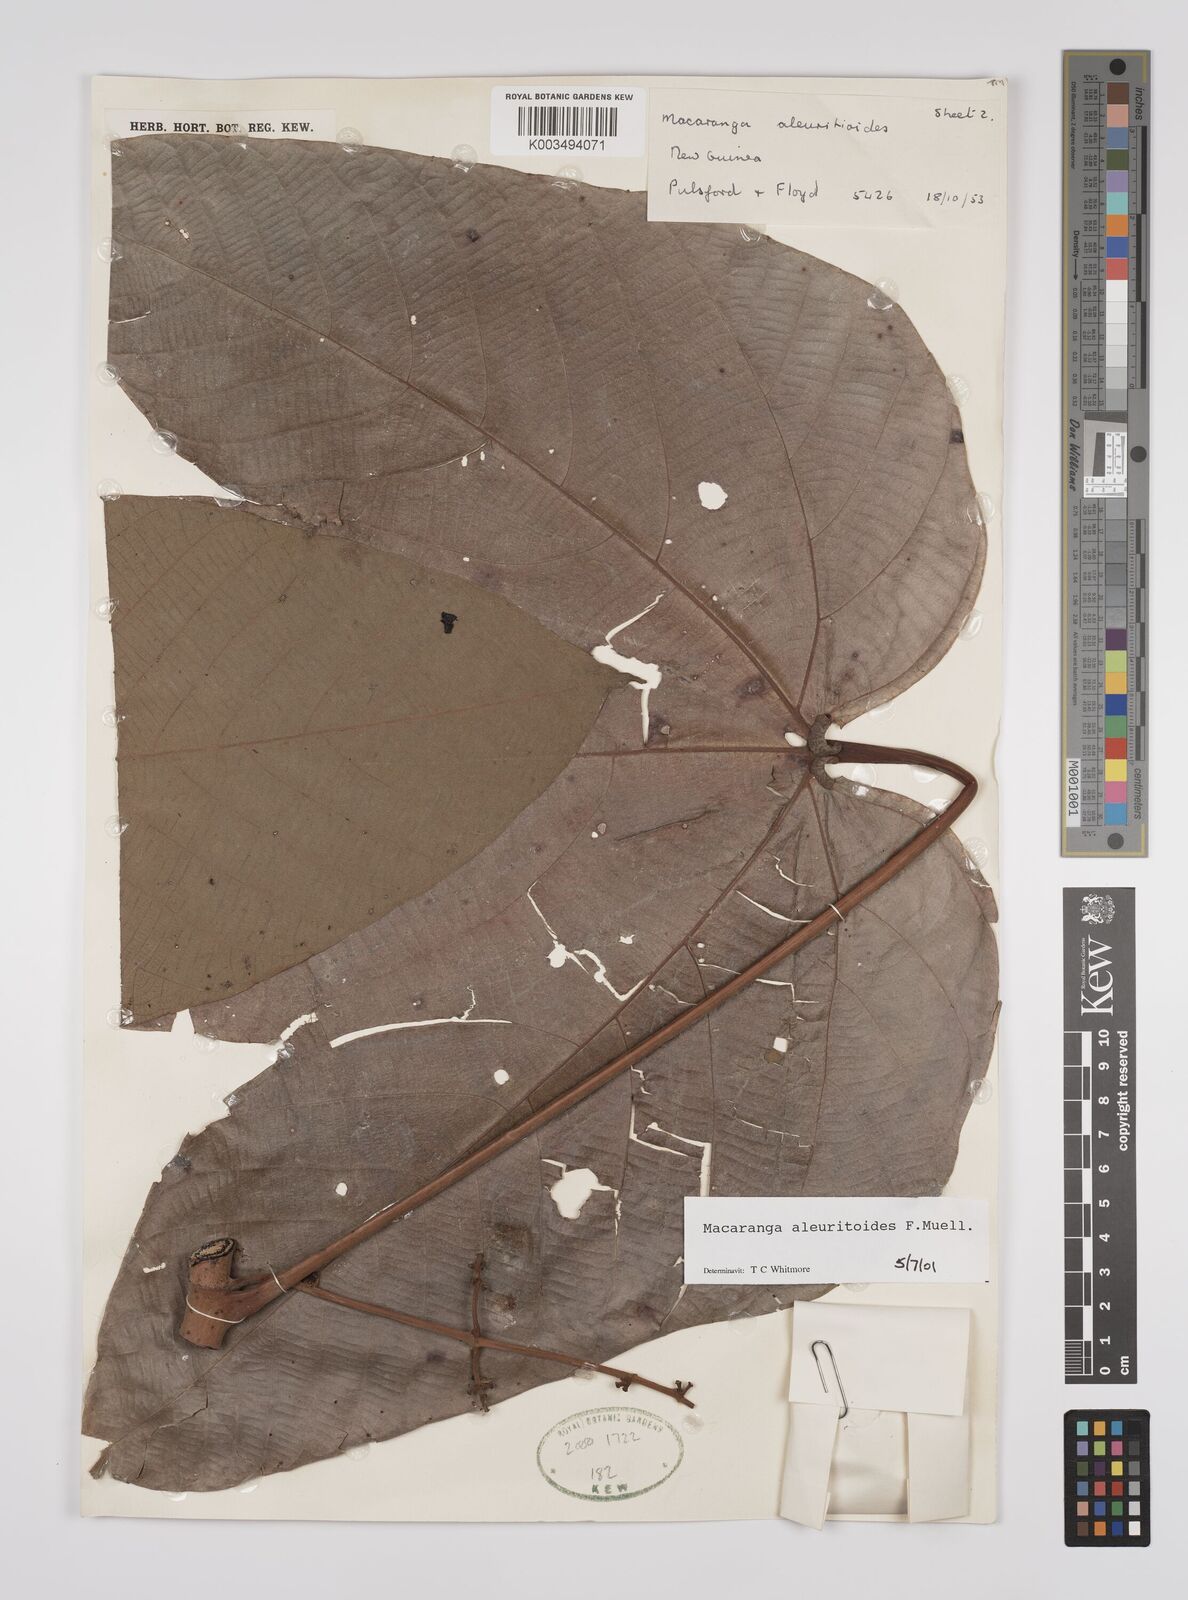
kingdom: Plantae
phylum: Tracheophyta
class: Magnoliopsida
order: Malpighiales
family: Euphorbiaceae
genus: Macaranga
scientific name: Macaranga aleuritoides
